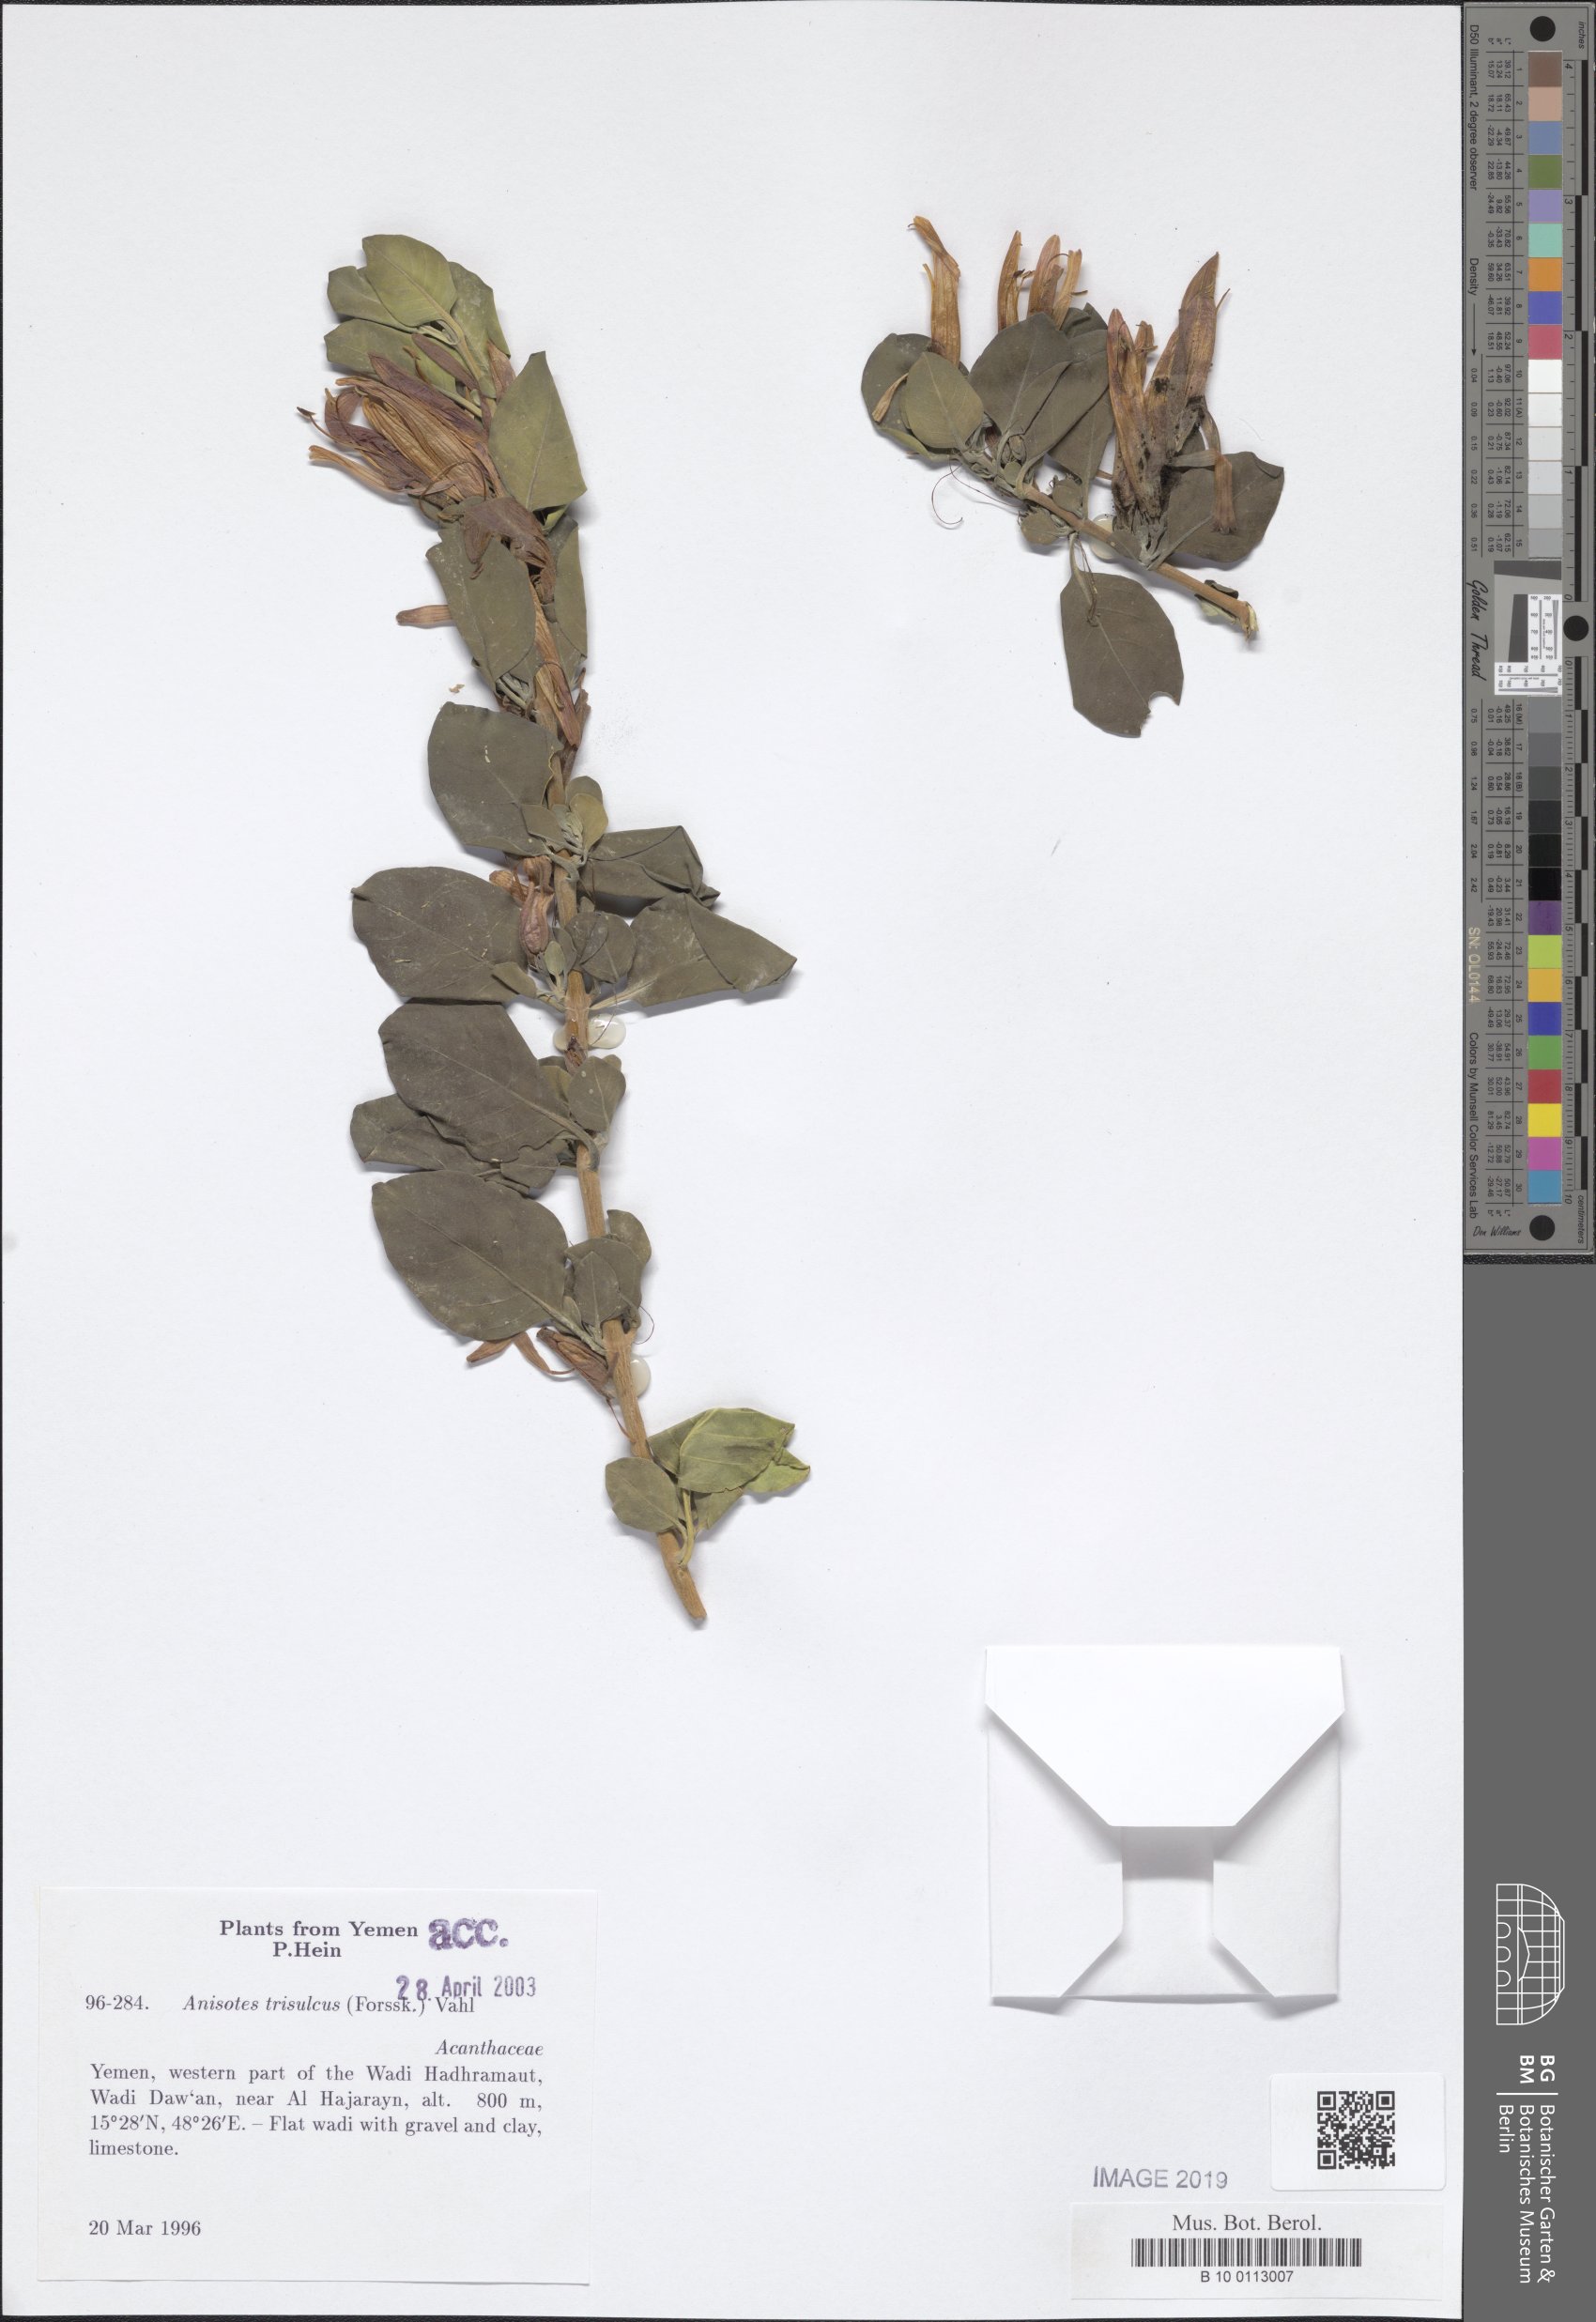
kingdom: Plantae
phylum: Tracheophyta
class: Magnoliopsida
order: Lamiales
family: Acanthaceae
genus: Anisotes
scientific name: Anisotes trisulcus
